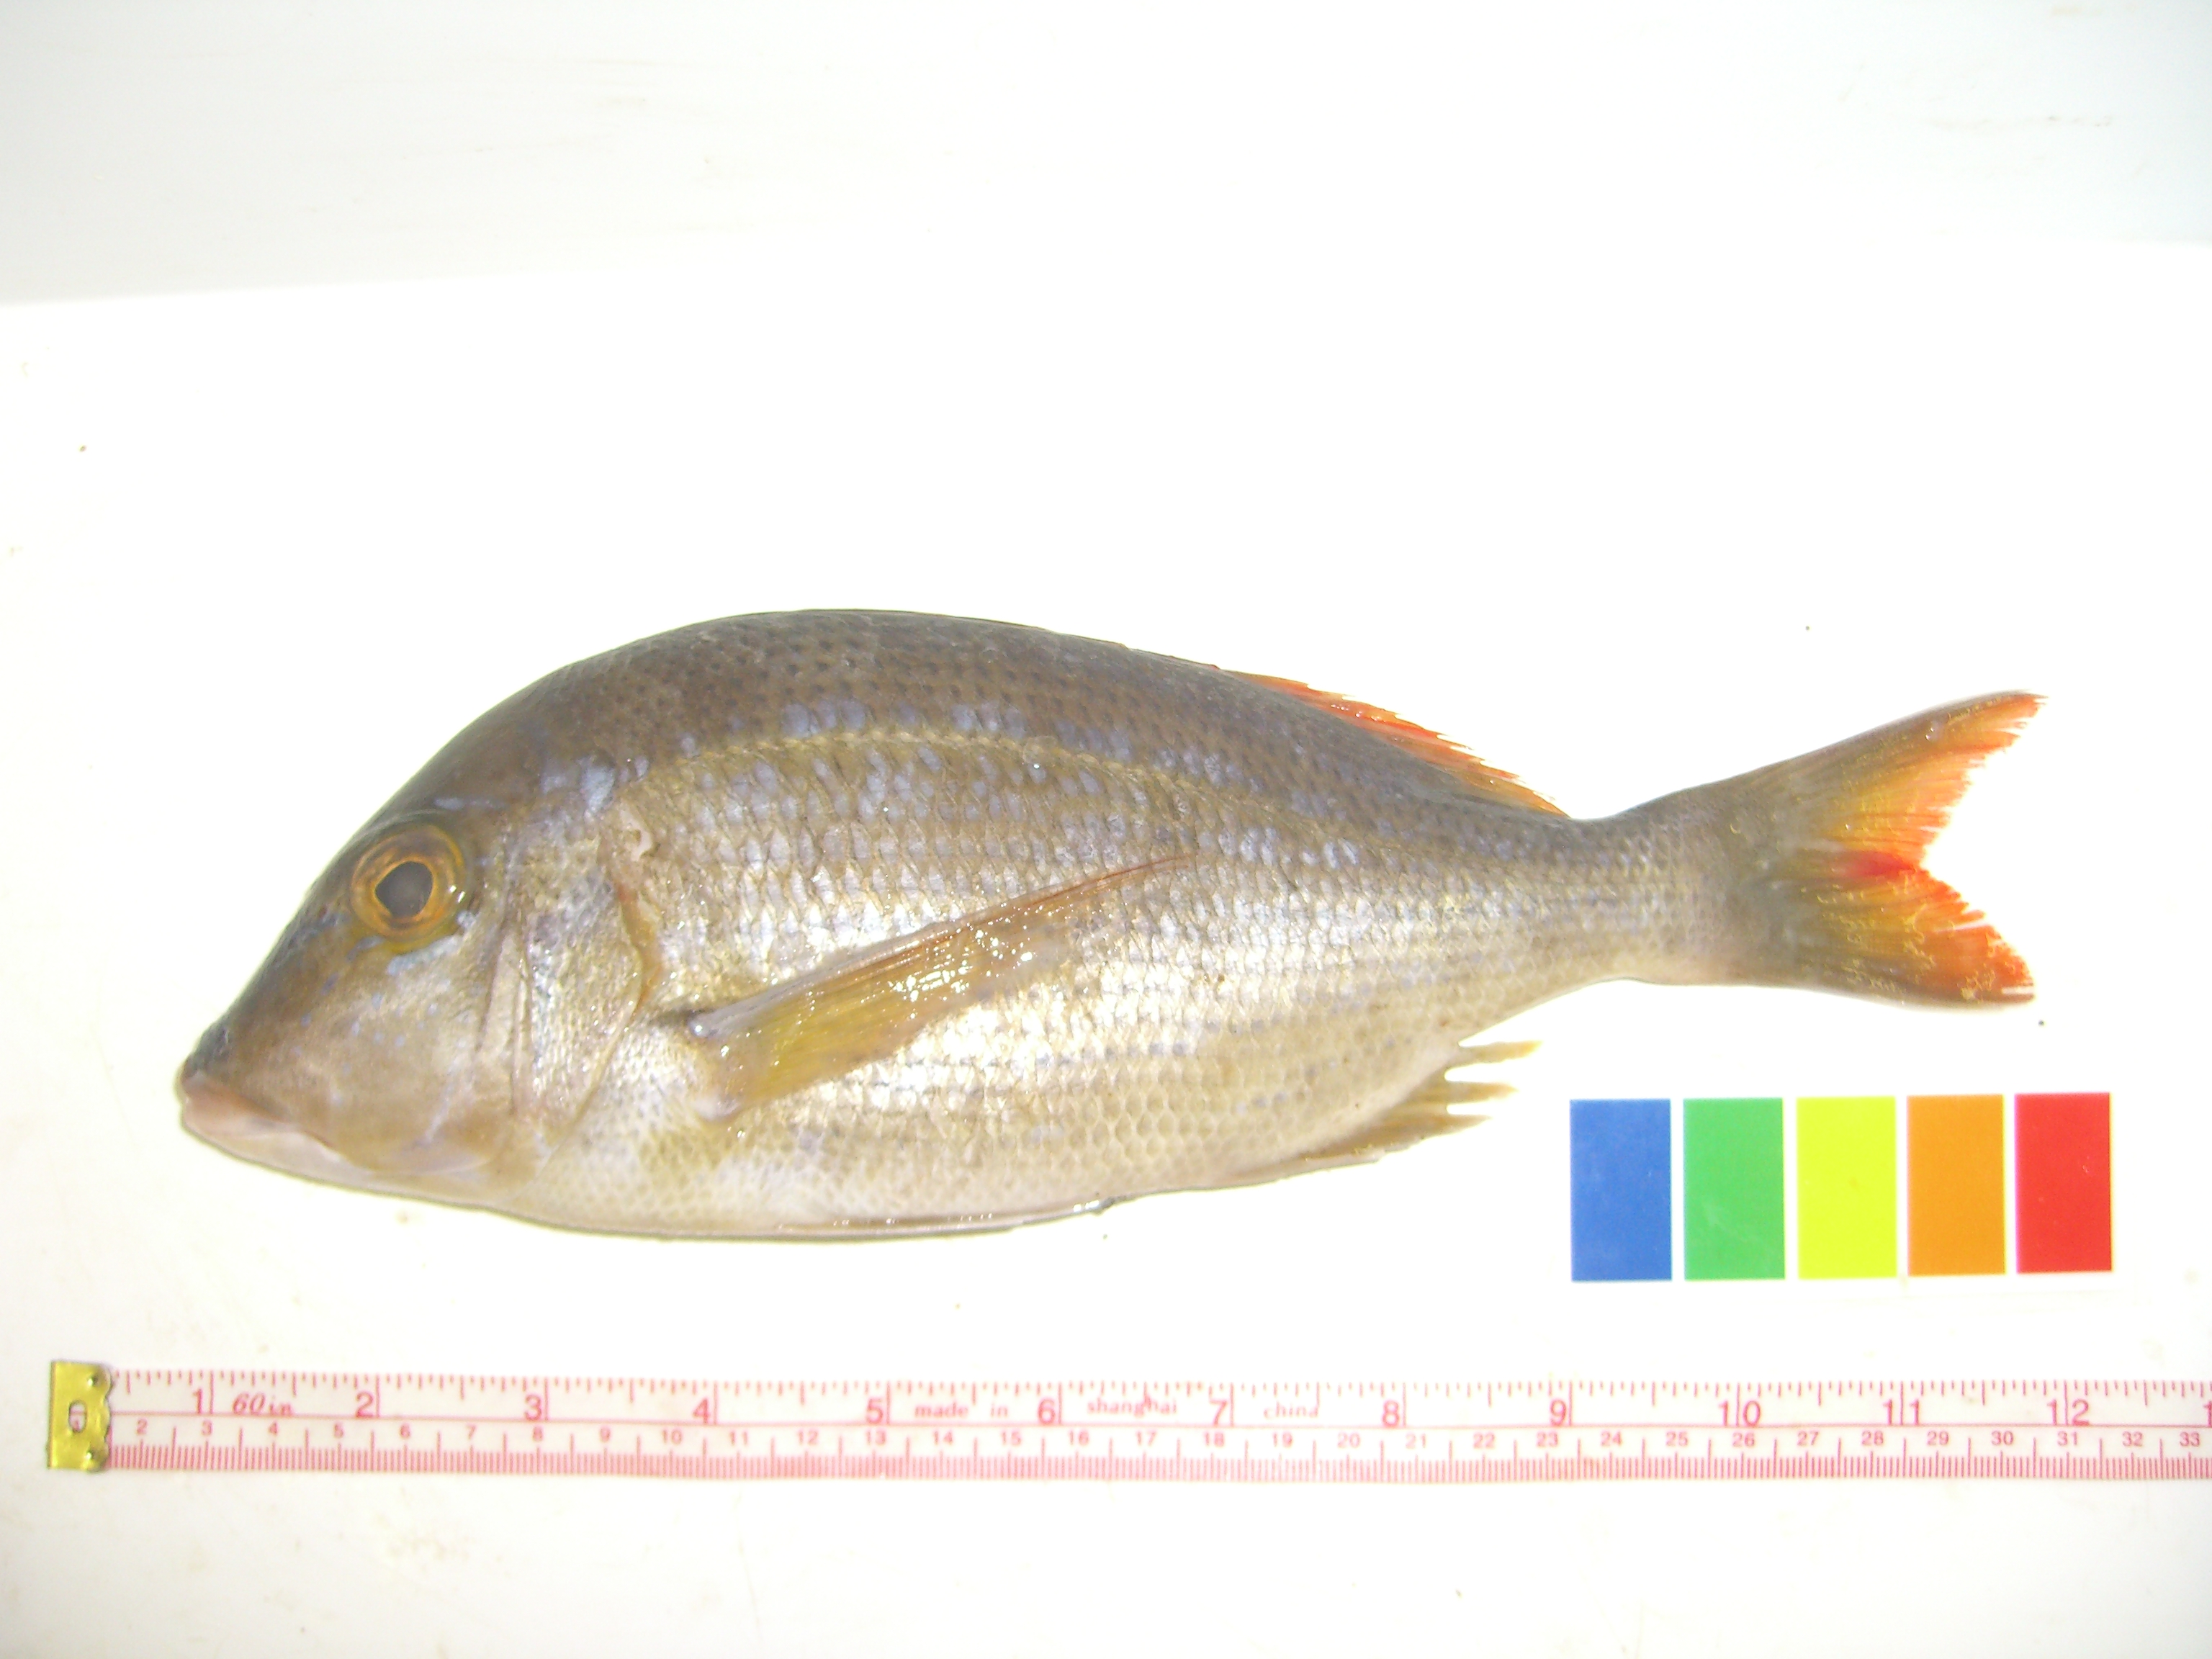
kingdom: Animalia
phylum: Chordata
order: Perciformes
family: Lethrinidae
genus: Lethrinus
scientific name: Lethrinus nebulosus
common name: Spangled emperor
